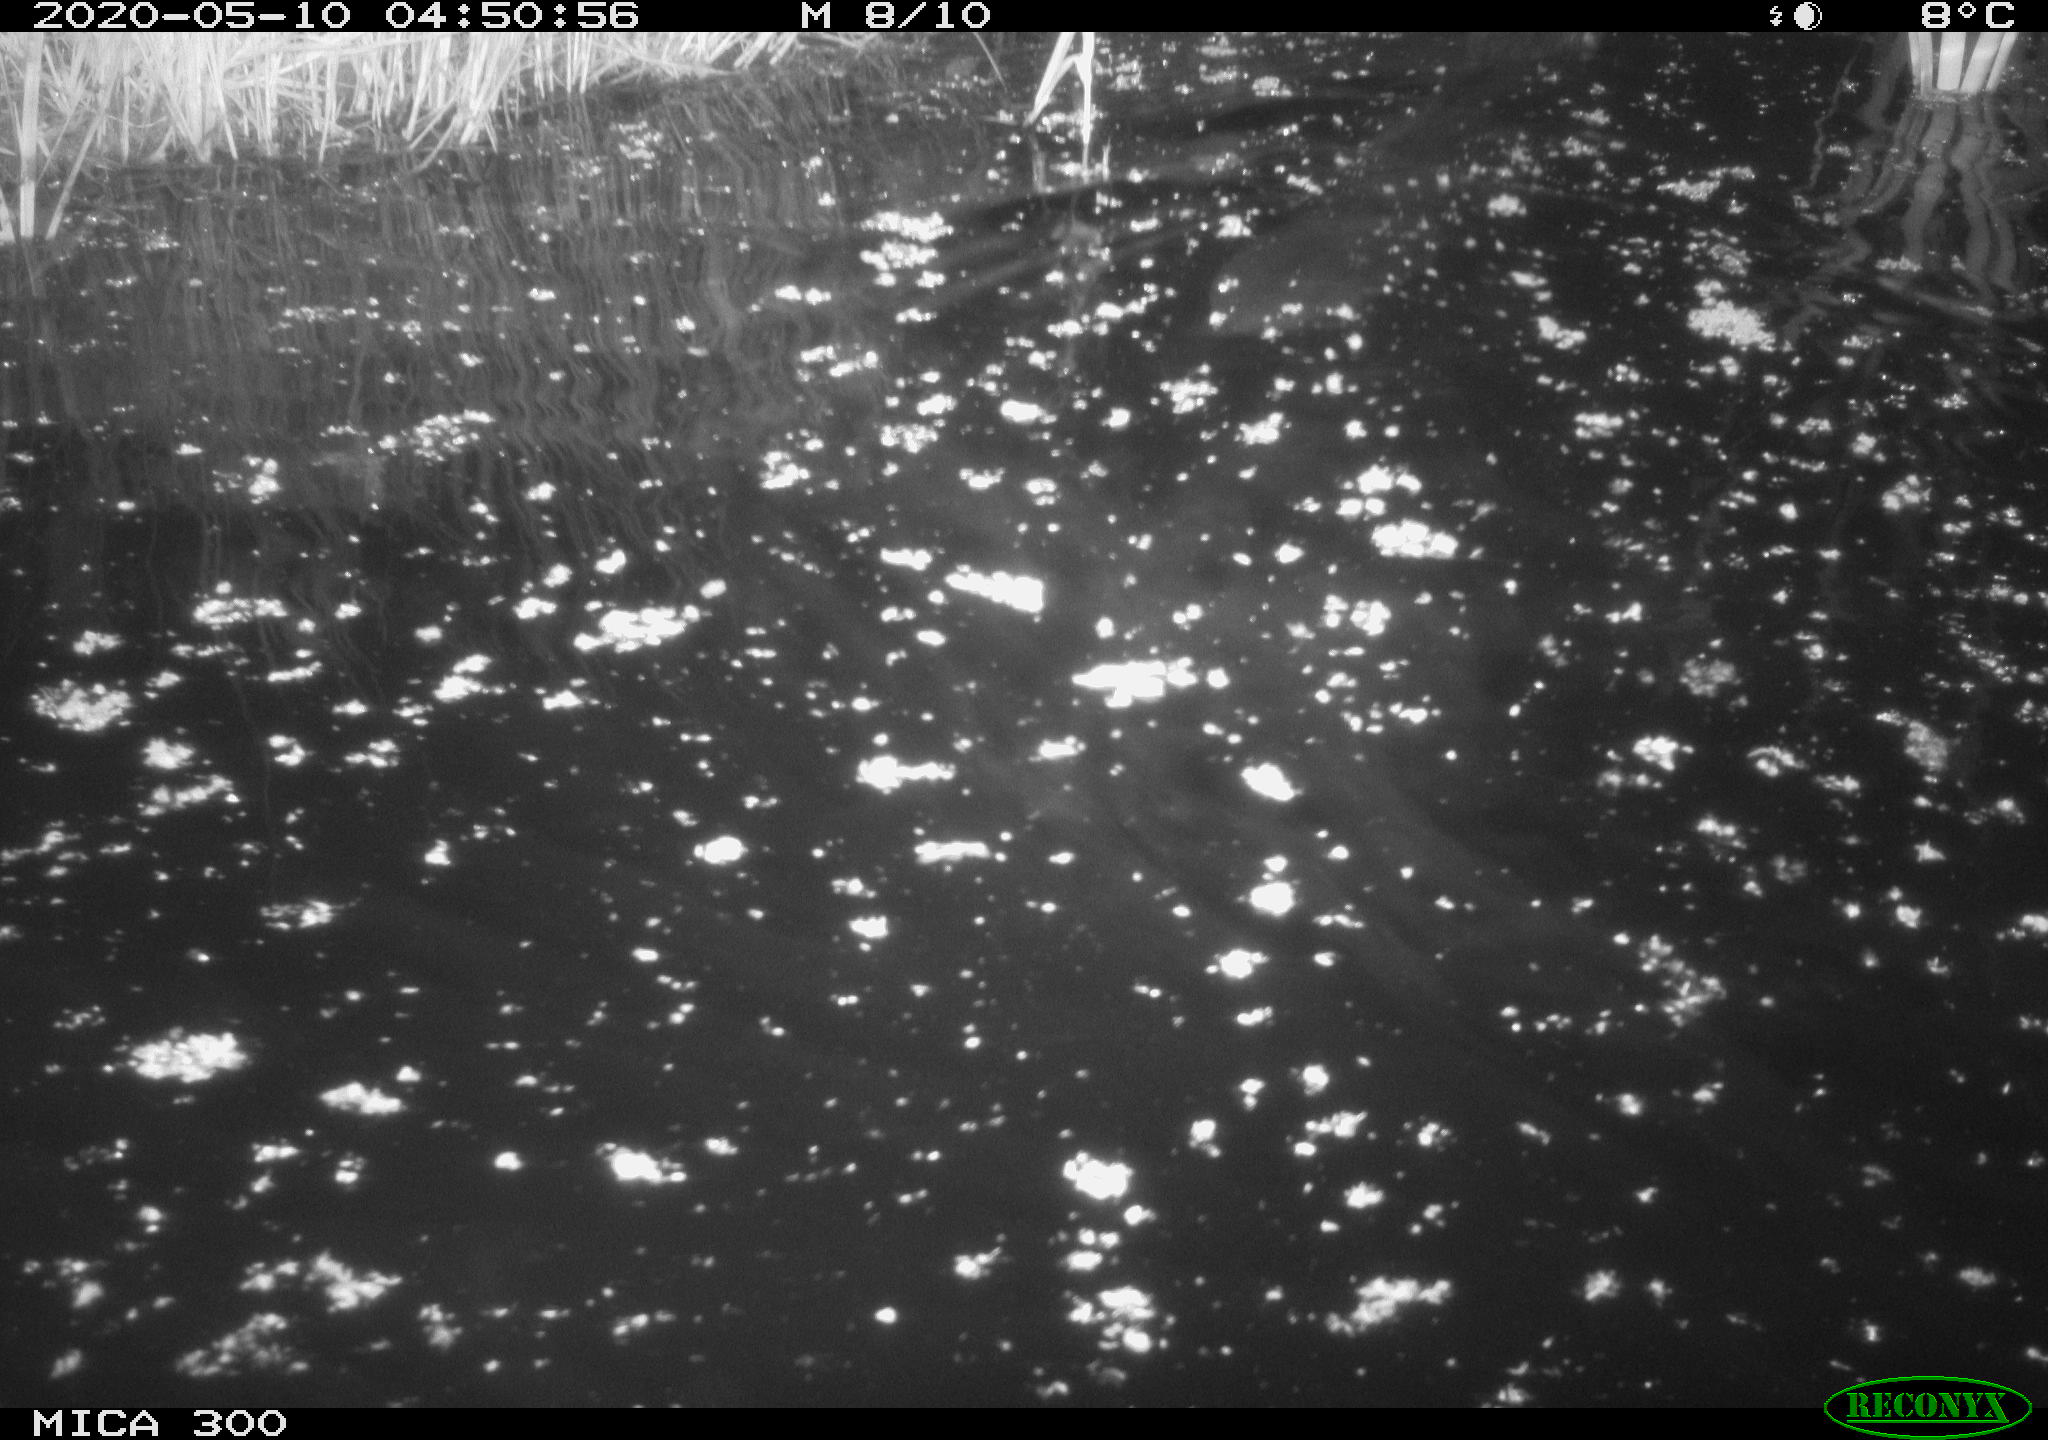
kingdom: Animalia
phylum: Chordata
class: Mammalia
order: Rodentia
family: Castoridae
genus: Castor
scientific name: Castor fiber
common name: Eurasian beaver
